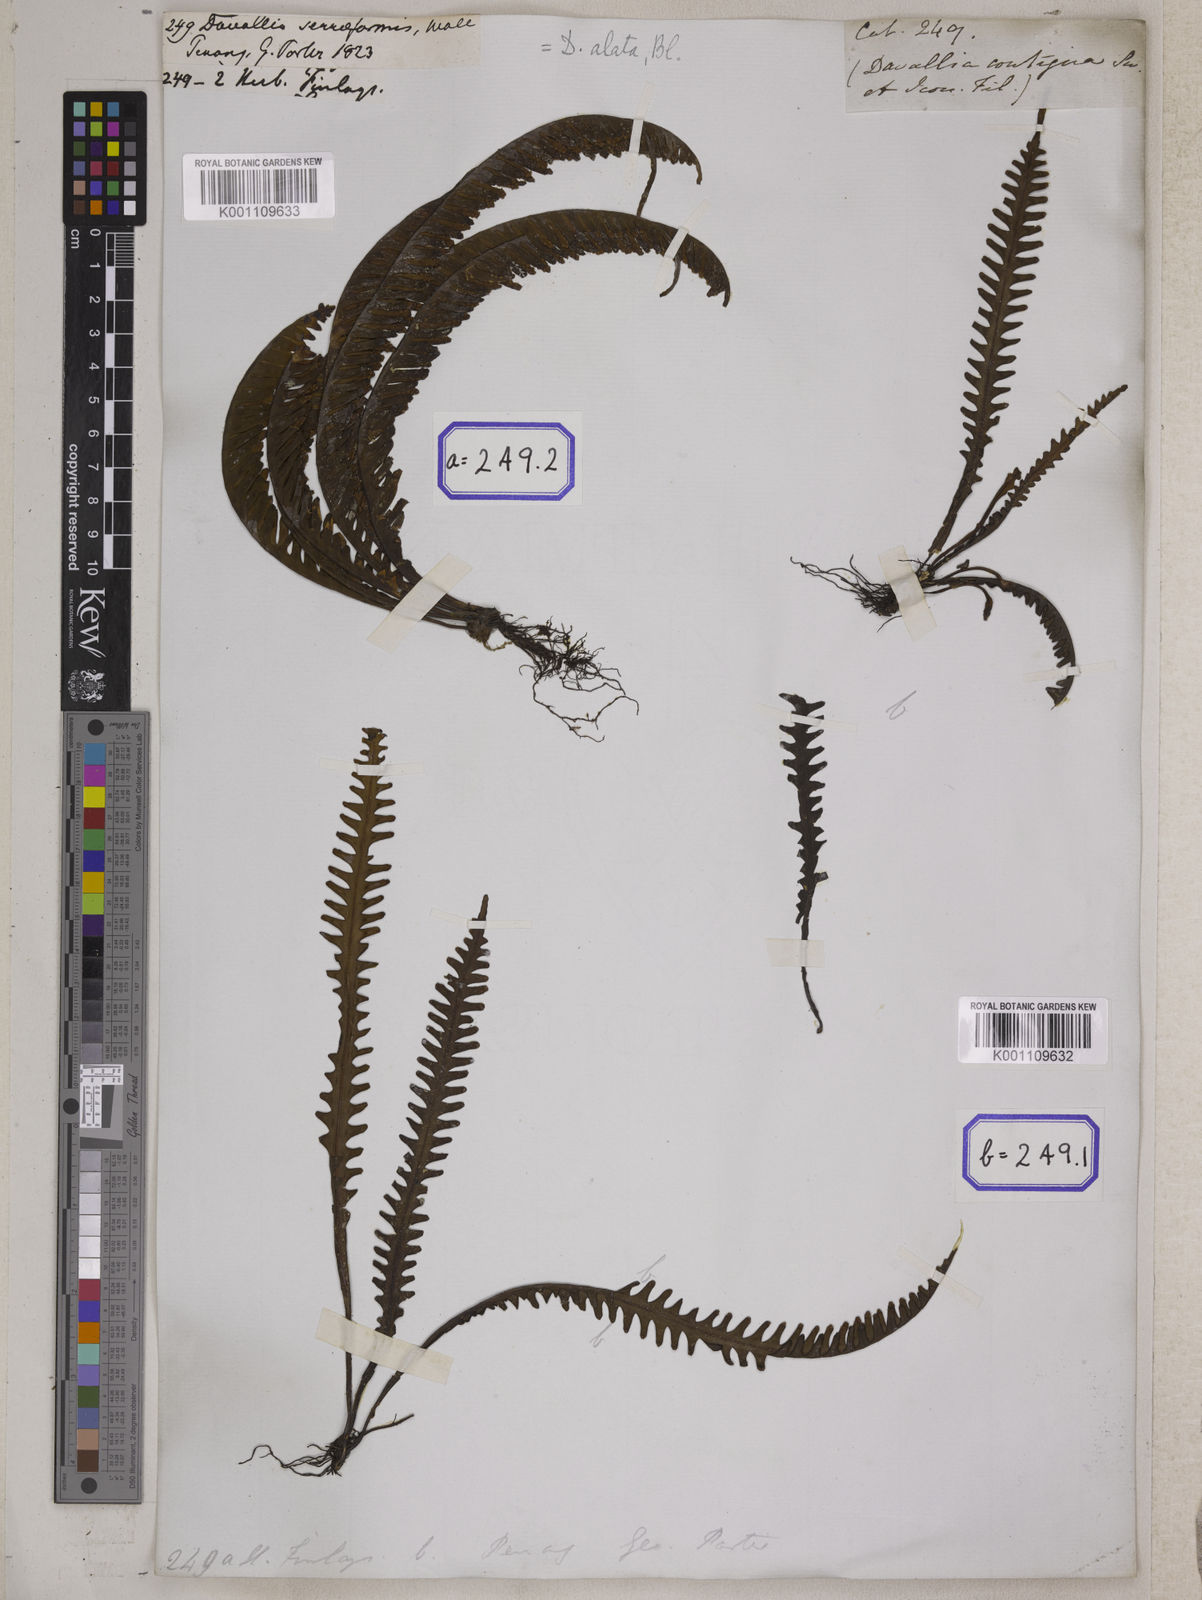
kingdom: Plantae
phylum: Tracheophyta
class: Polypodiopsida
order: Polypodiales
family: Polypodiaceae
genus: Prosaptia
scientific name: Prosaptia alata
